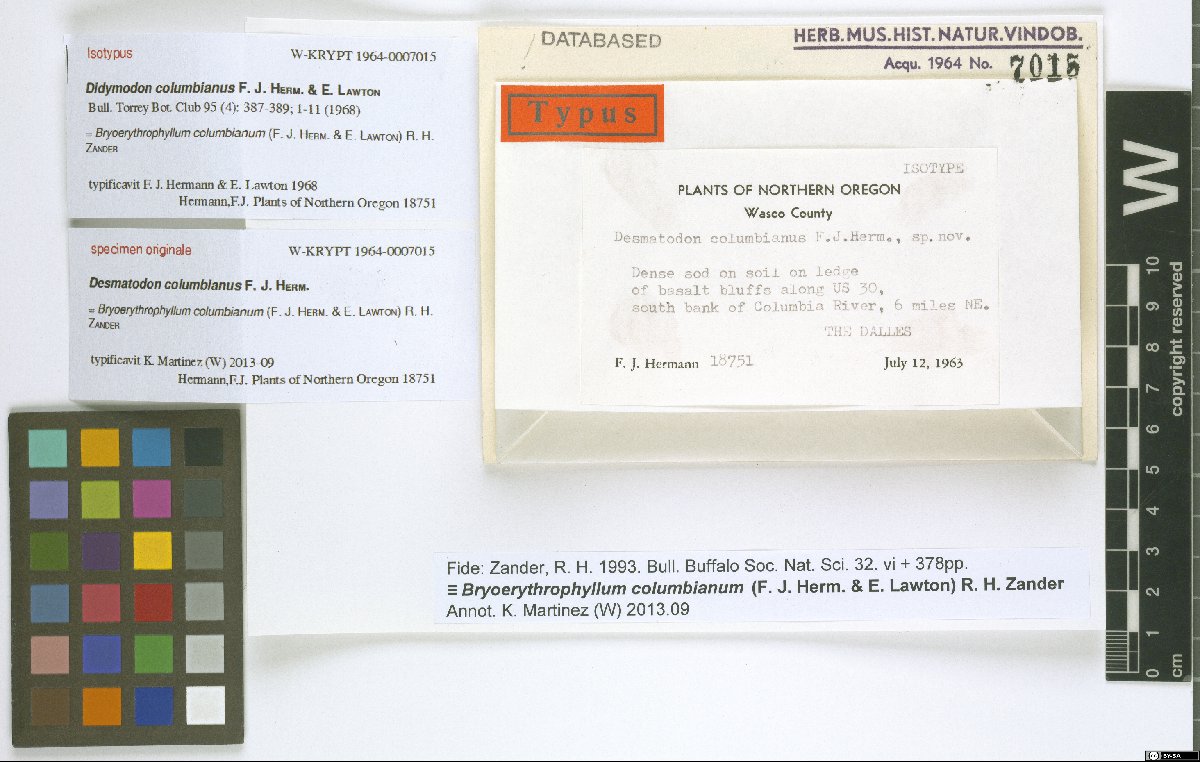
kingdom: Plantae
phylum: Bryophyta
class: Bryopsida
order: Pottiales
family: Pottiaceae
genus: Bryoerythrophyllum
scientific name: Bryoerythrophyllum columbianum
